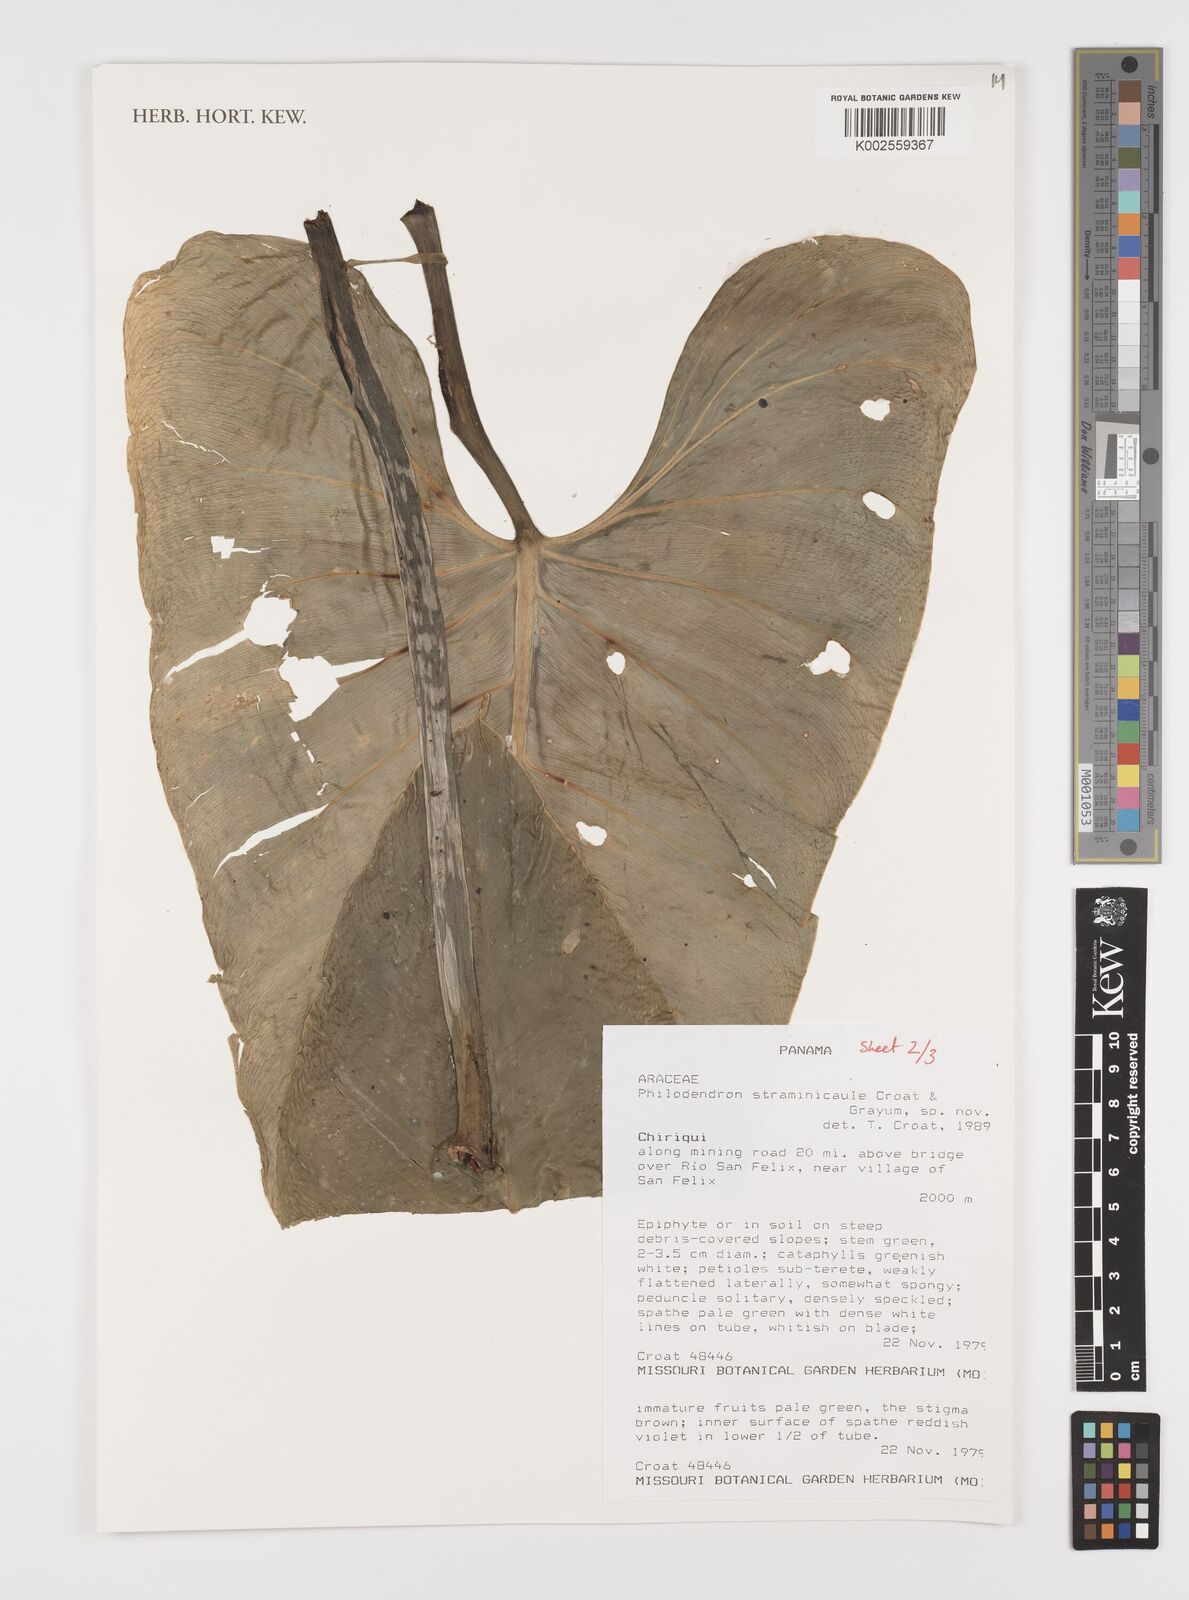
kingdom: Plantae
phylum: Tracheophyta
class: Liliopsida
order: Alismatales
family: Araceae
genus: Philodendron
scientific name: Philodendron straminicaule
